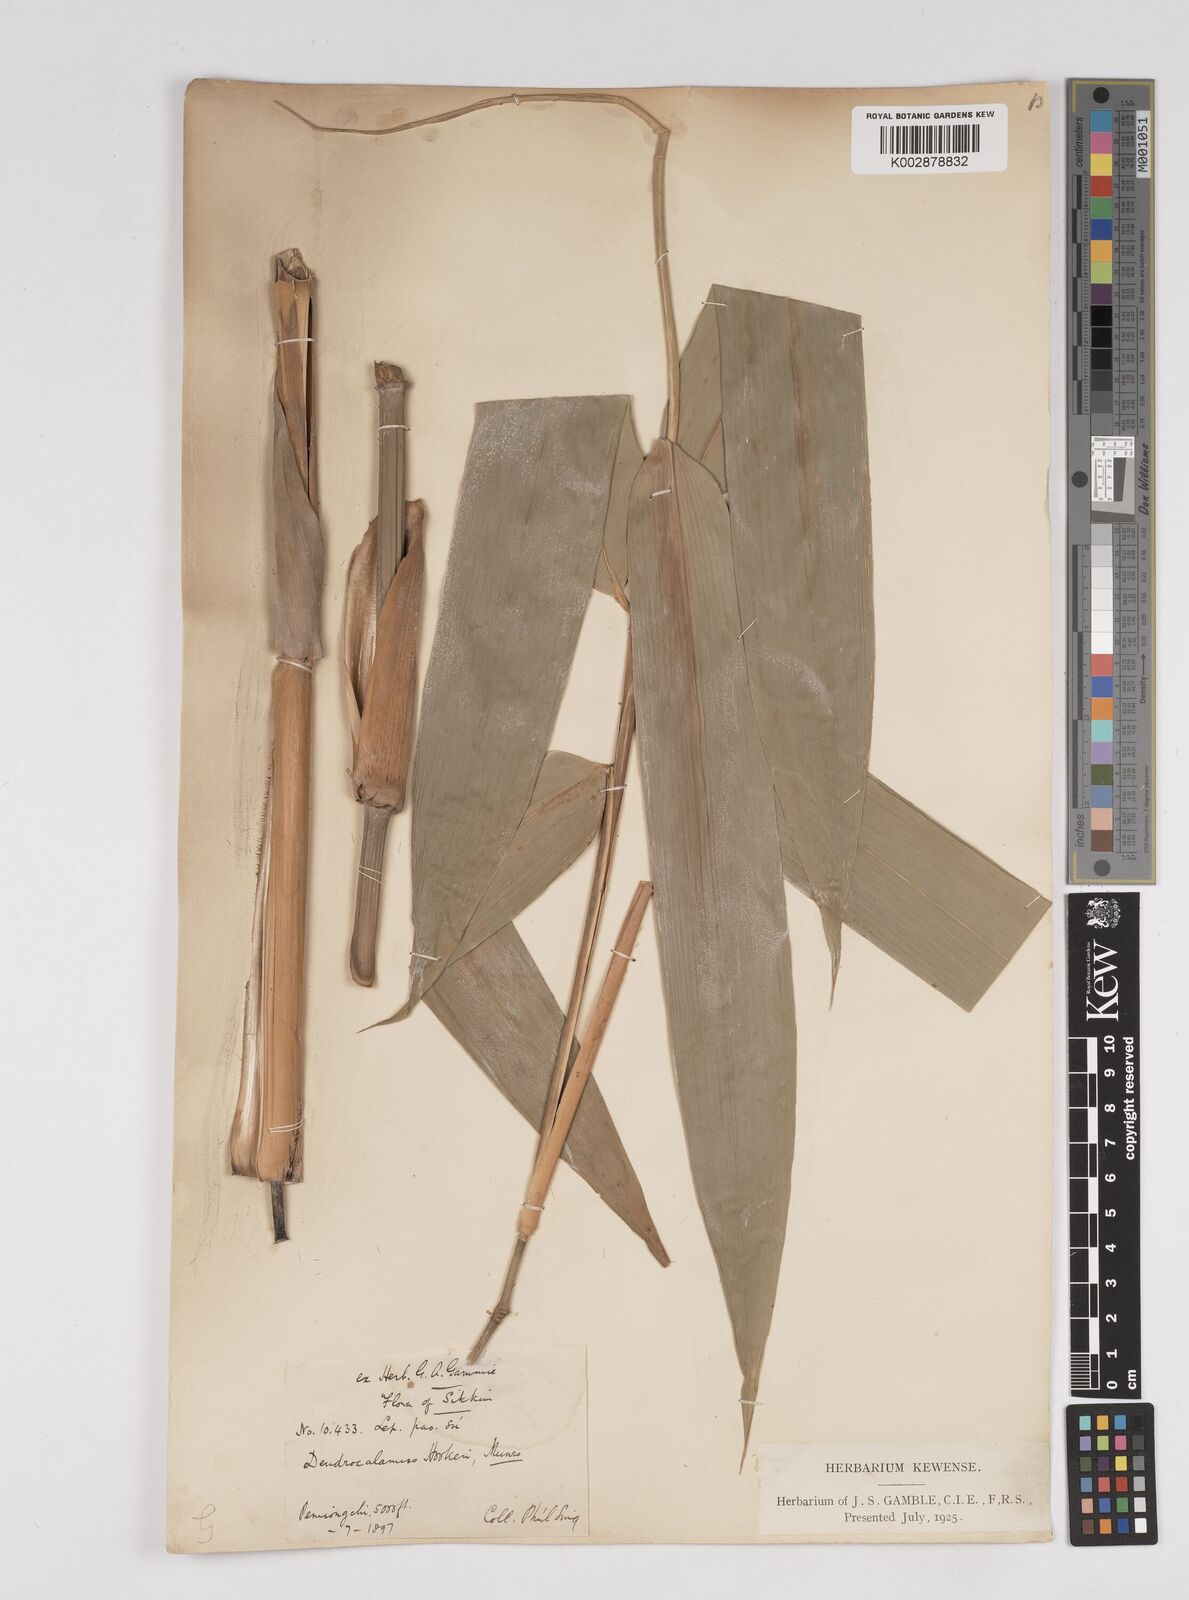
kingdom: Plantae
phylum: Tracheophyta
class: Liliopsida
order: Poales
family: Poaceae
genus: Dendrocalamus
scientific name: Dendrocalamus hookeri
